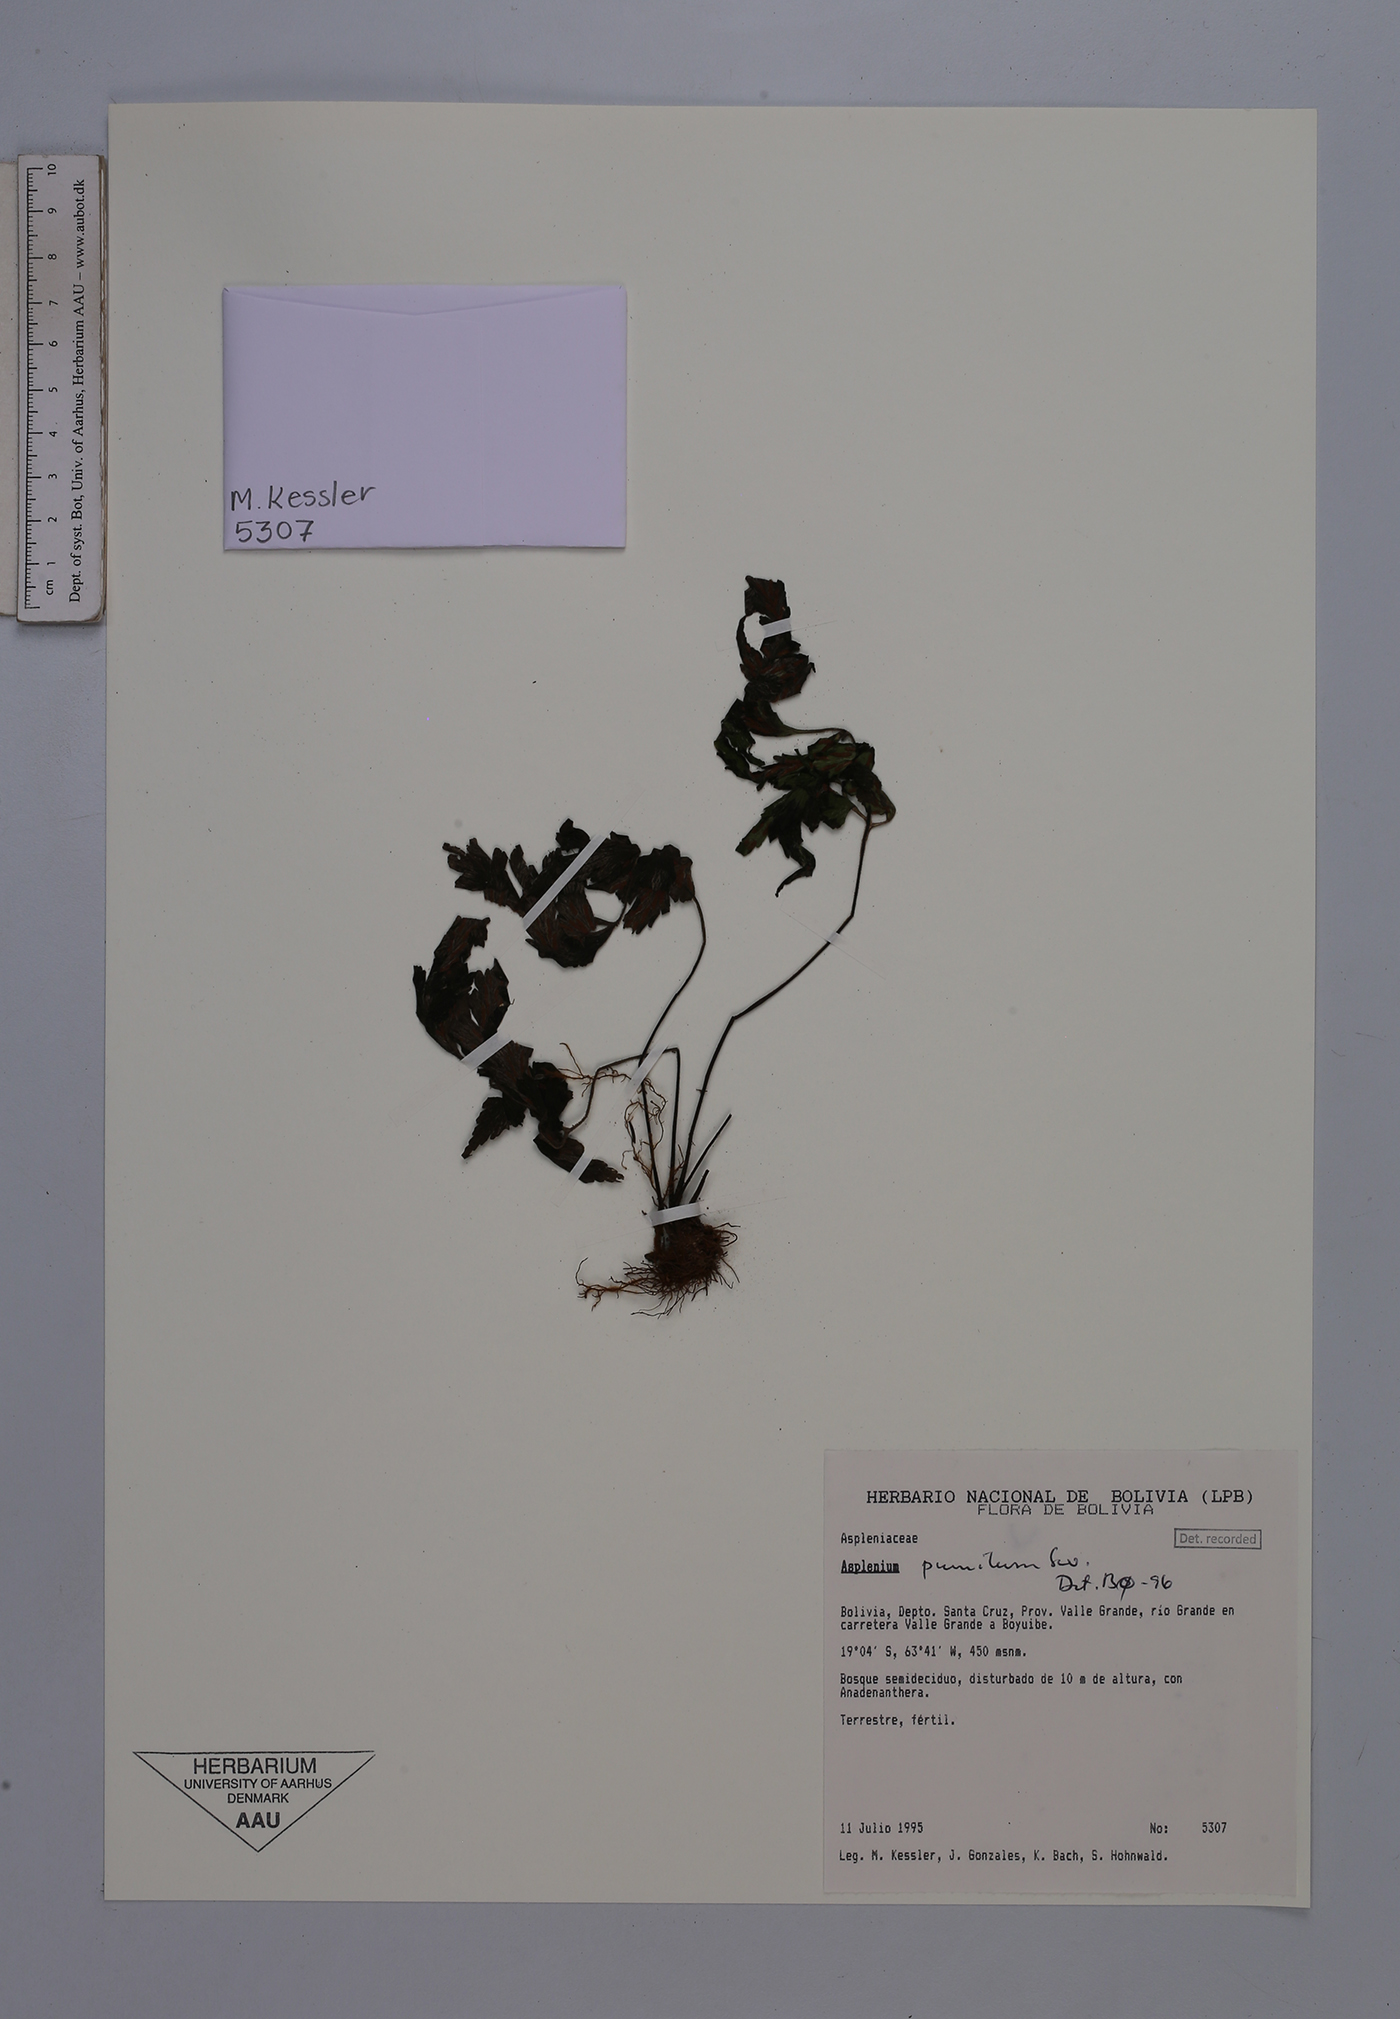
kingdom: Plantae
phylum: Tracheophyta
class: Polypodiopsida
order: Polypodiales
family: Aspleniaceae
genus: Asplenium
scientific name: Asplenium pumilum
